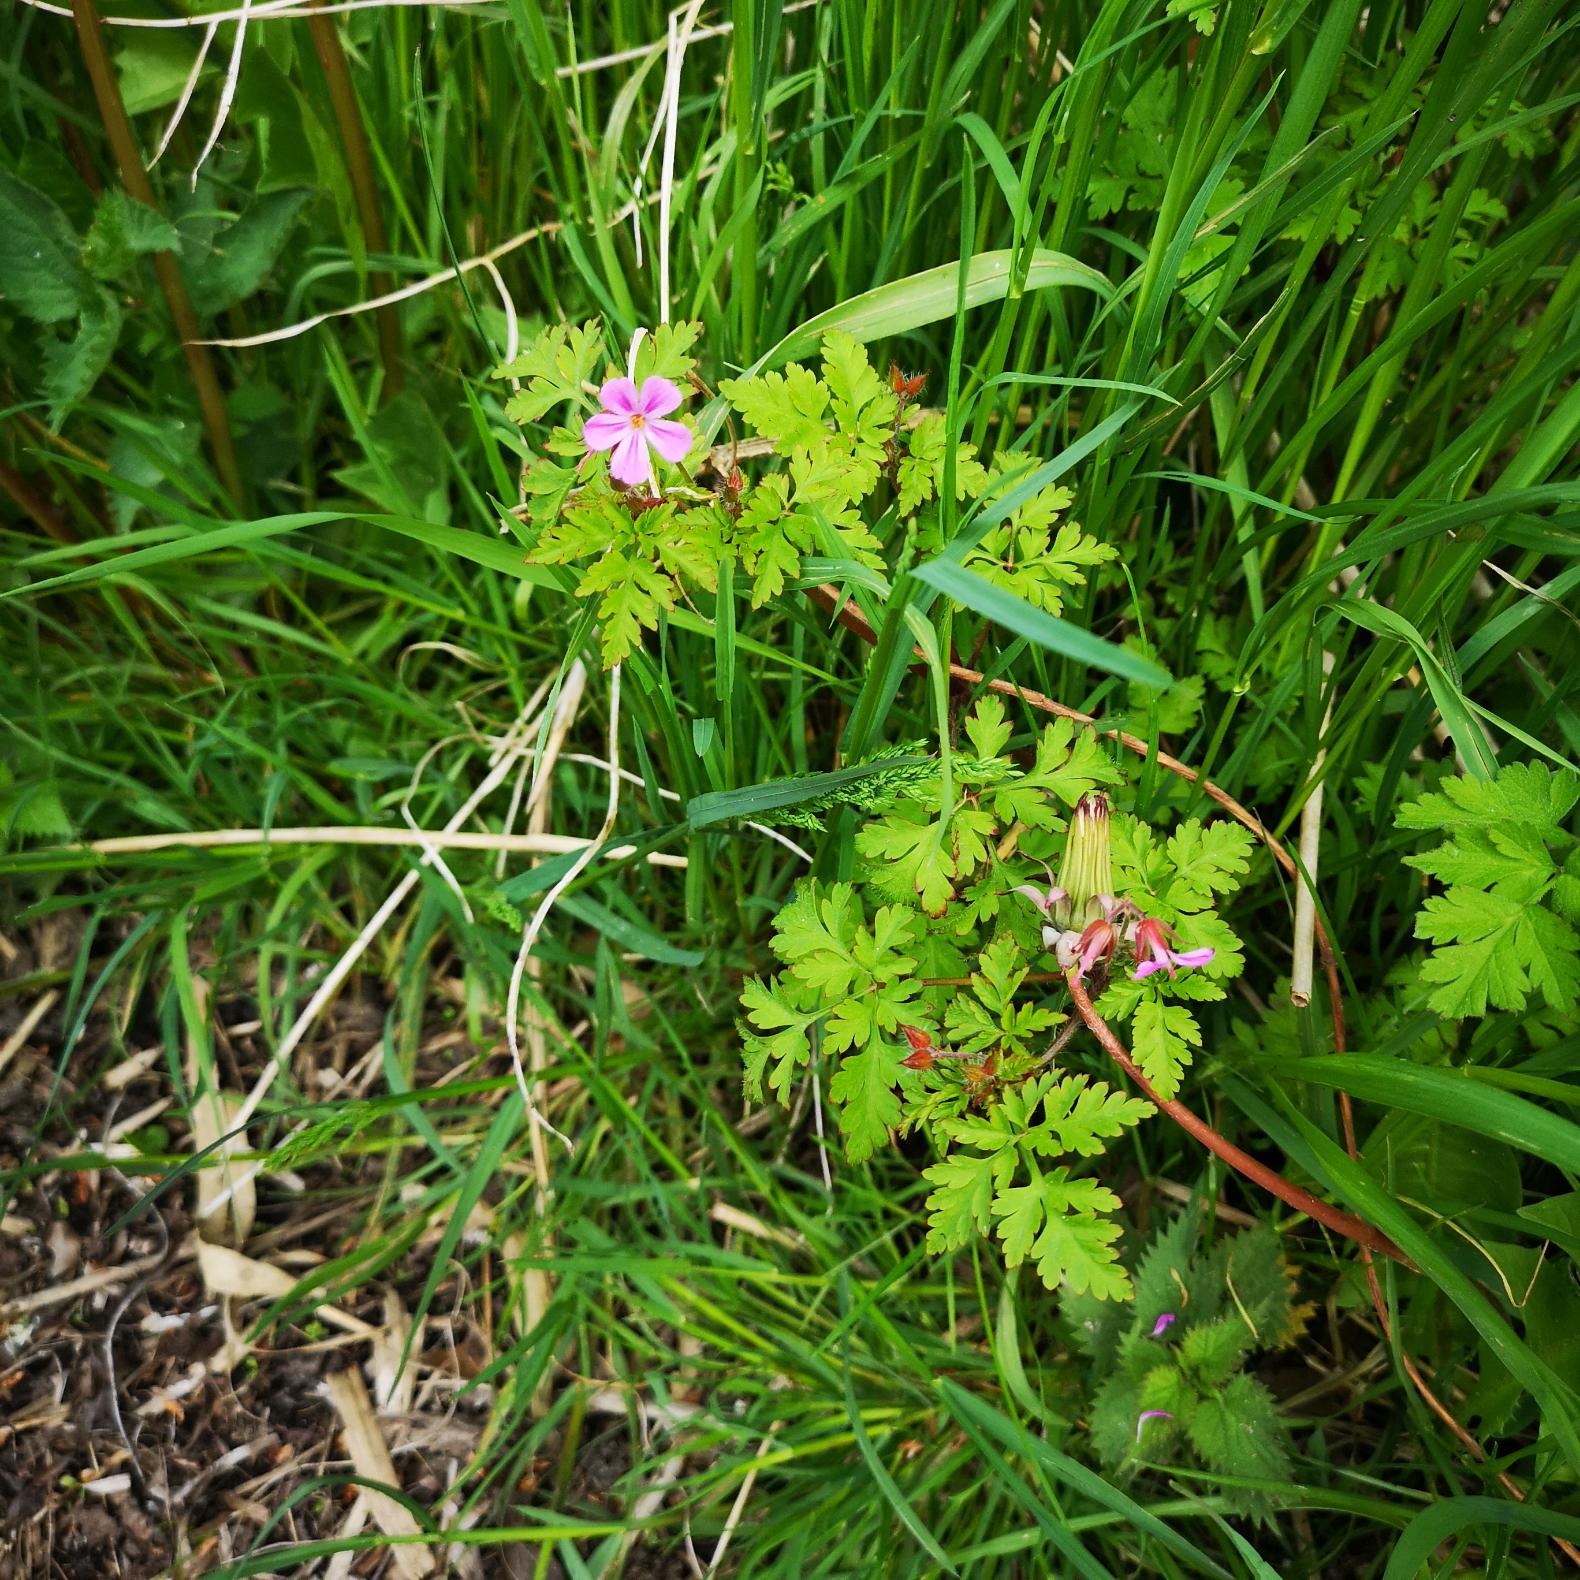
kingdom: Plantae
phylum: Tracheophyta
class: Magnoliopsida
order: Geraniales
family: Geraniaceae
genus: Geranium
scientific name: Geranium robertianum
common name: Stinkende storkenæb
